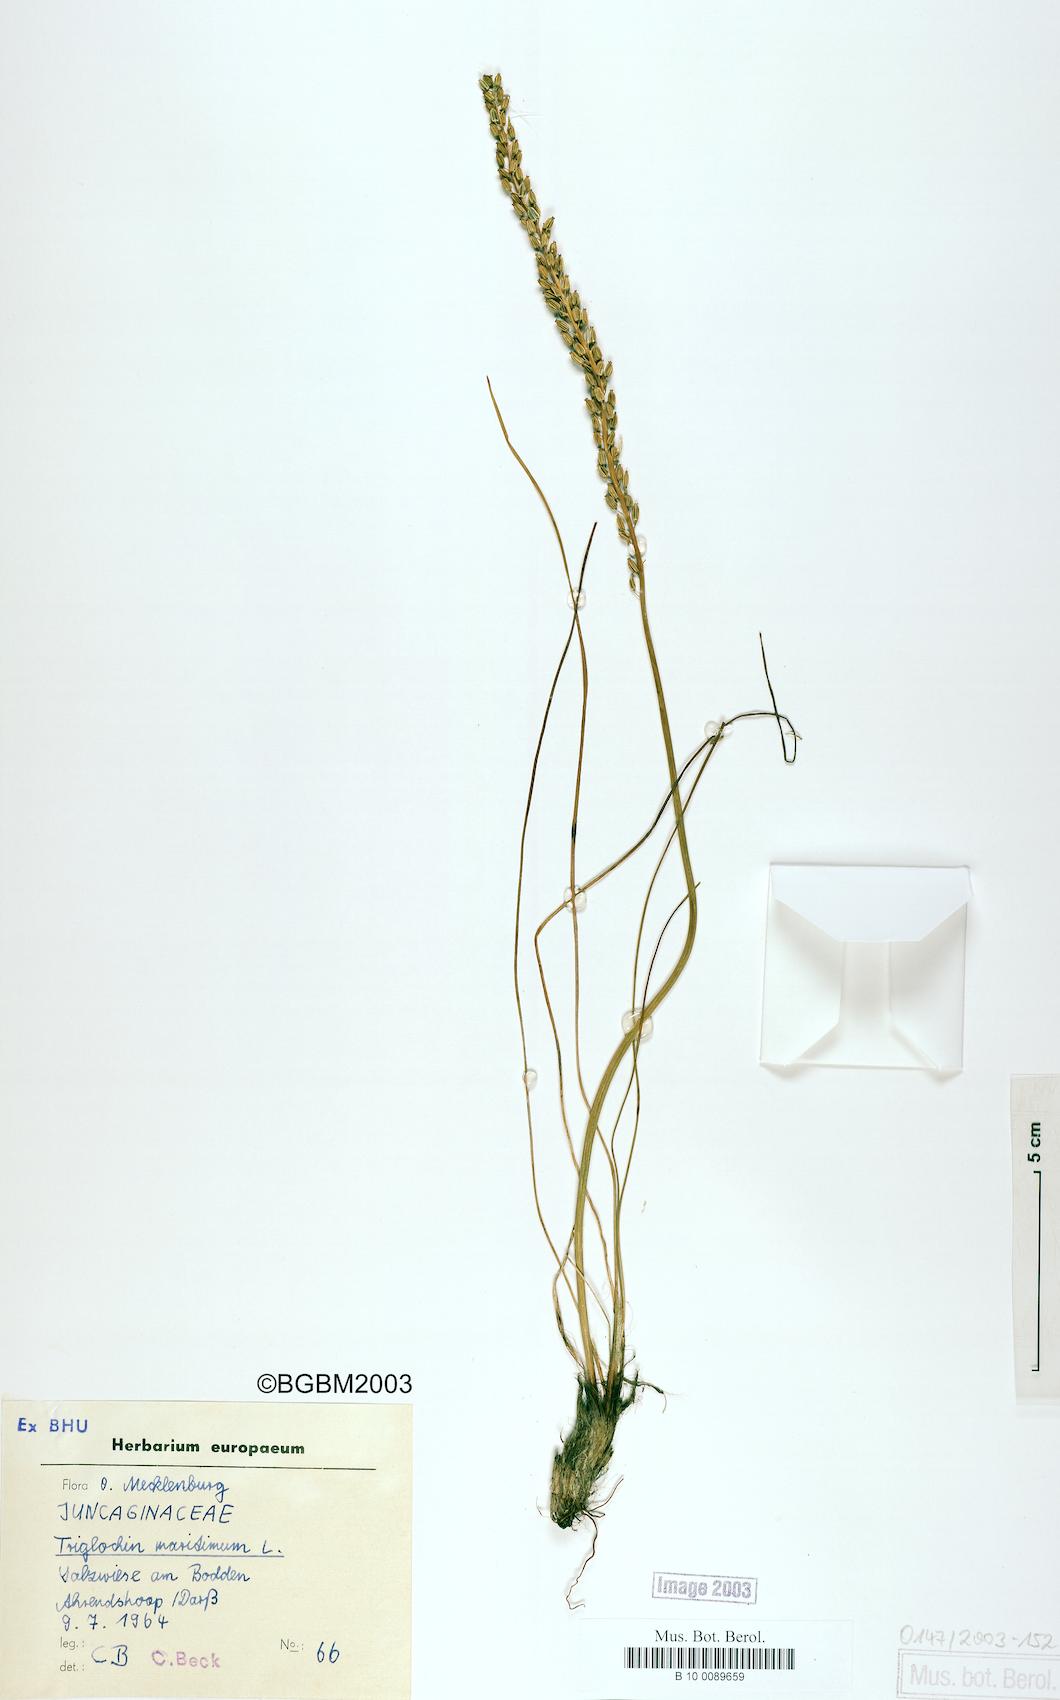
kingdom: Plantae
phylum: Tracheophyta
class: Liliopsida
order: Alismatales
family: Juncaginaceae
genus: Triglochin
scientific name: Triglochin maritima
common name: Sea arrowgrass
